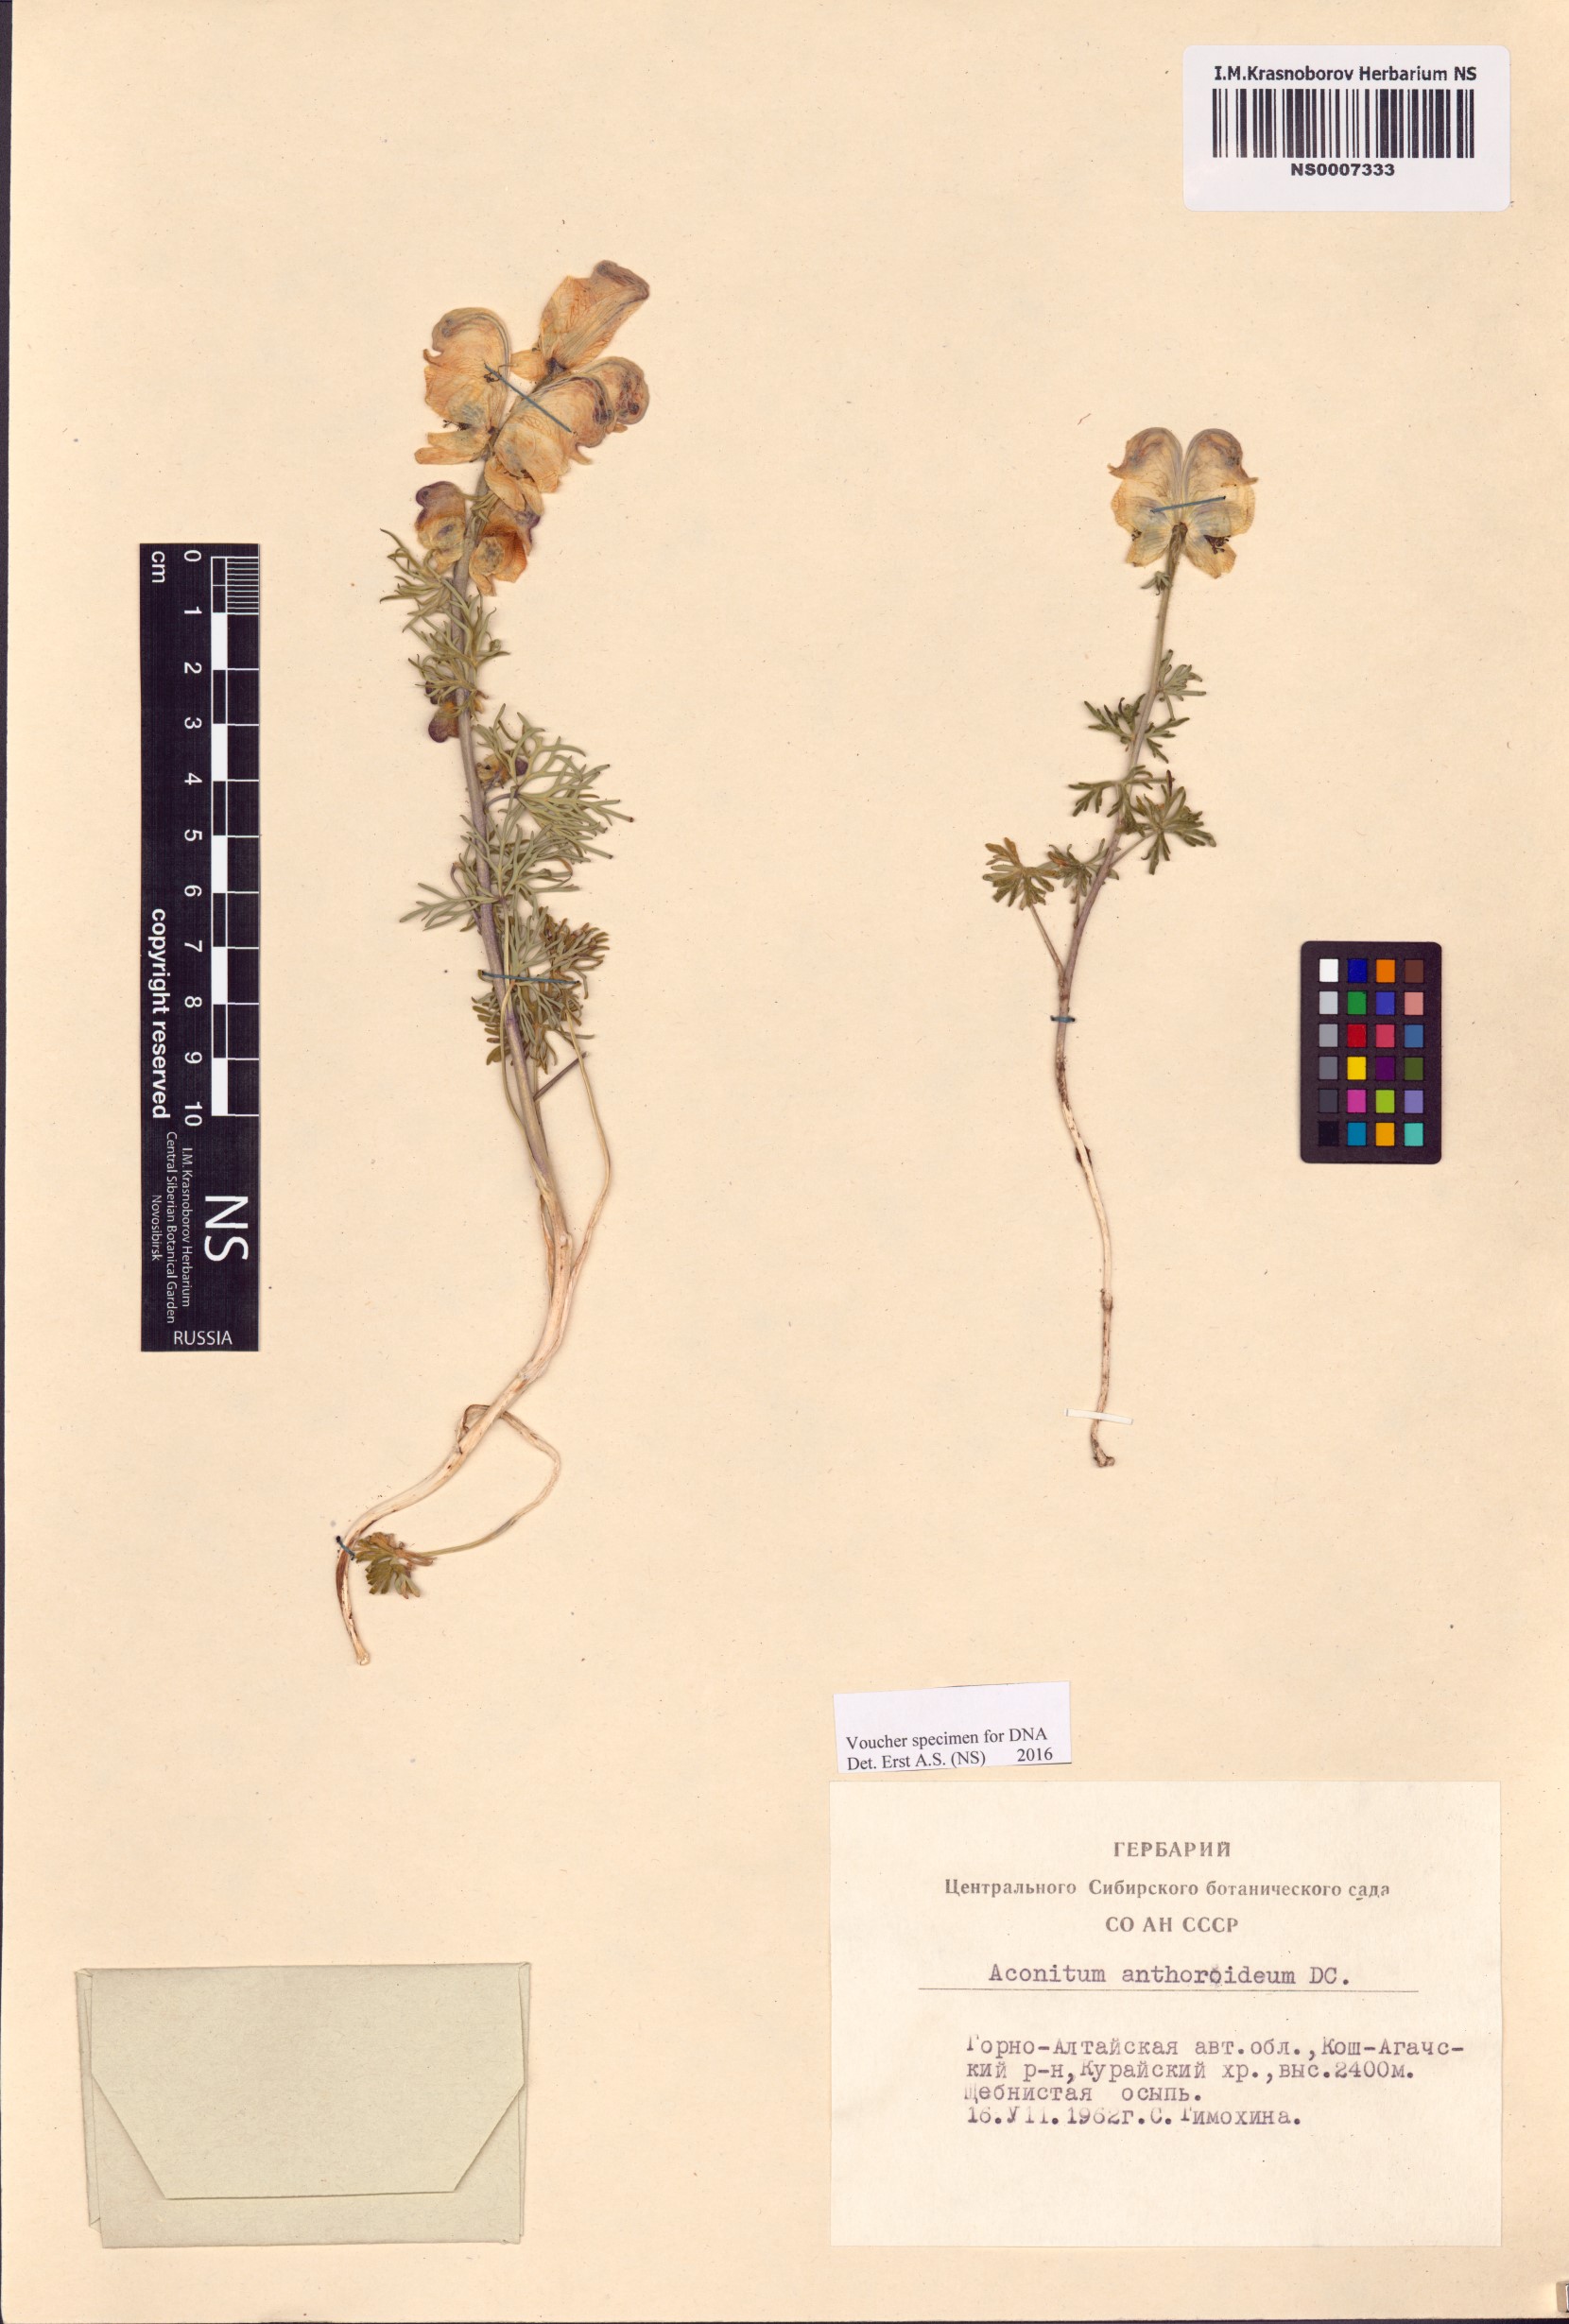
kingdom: Plantae
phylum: Tracheophyta
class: Magnoliopsida
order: Ranunculales
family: Ranunculaceae
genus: Aconitum
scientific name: Aconitum anthoroideum
